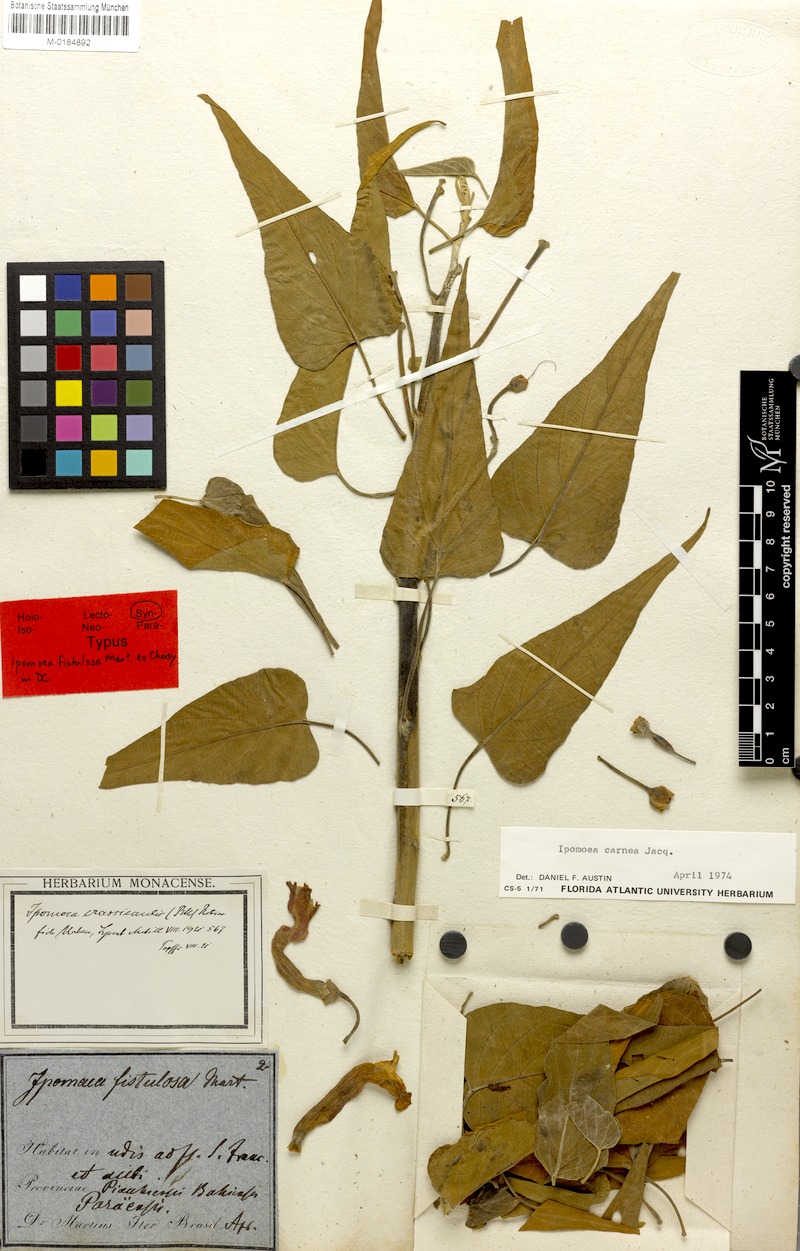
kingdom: Plantae
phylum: Tracheophyta
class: Magnoliopsida
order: Solanales
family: Convolvulaceae
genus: Ipomoea
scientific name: Ipomoea carnea
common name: Morning-glory
